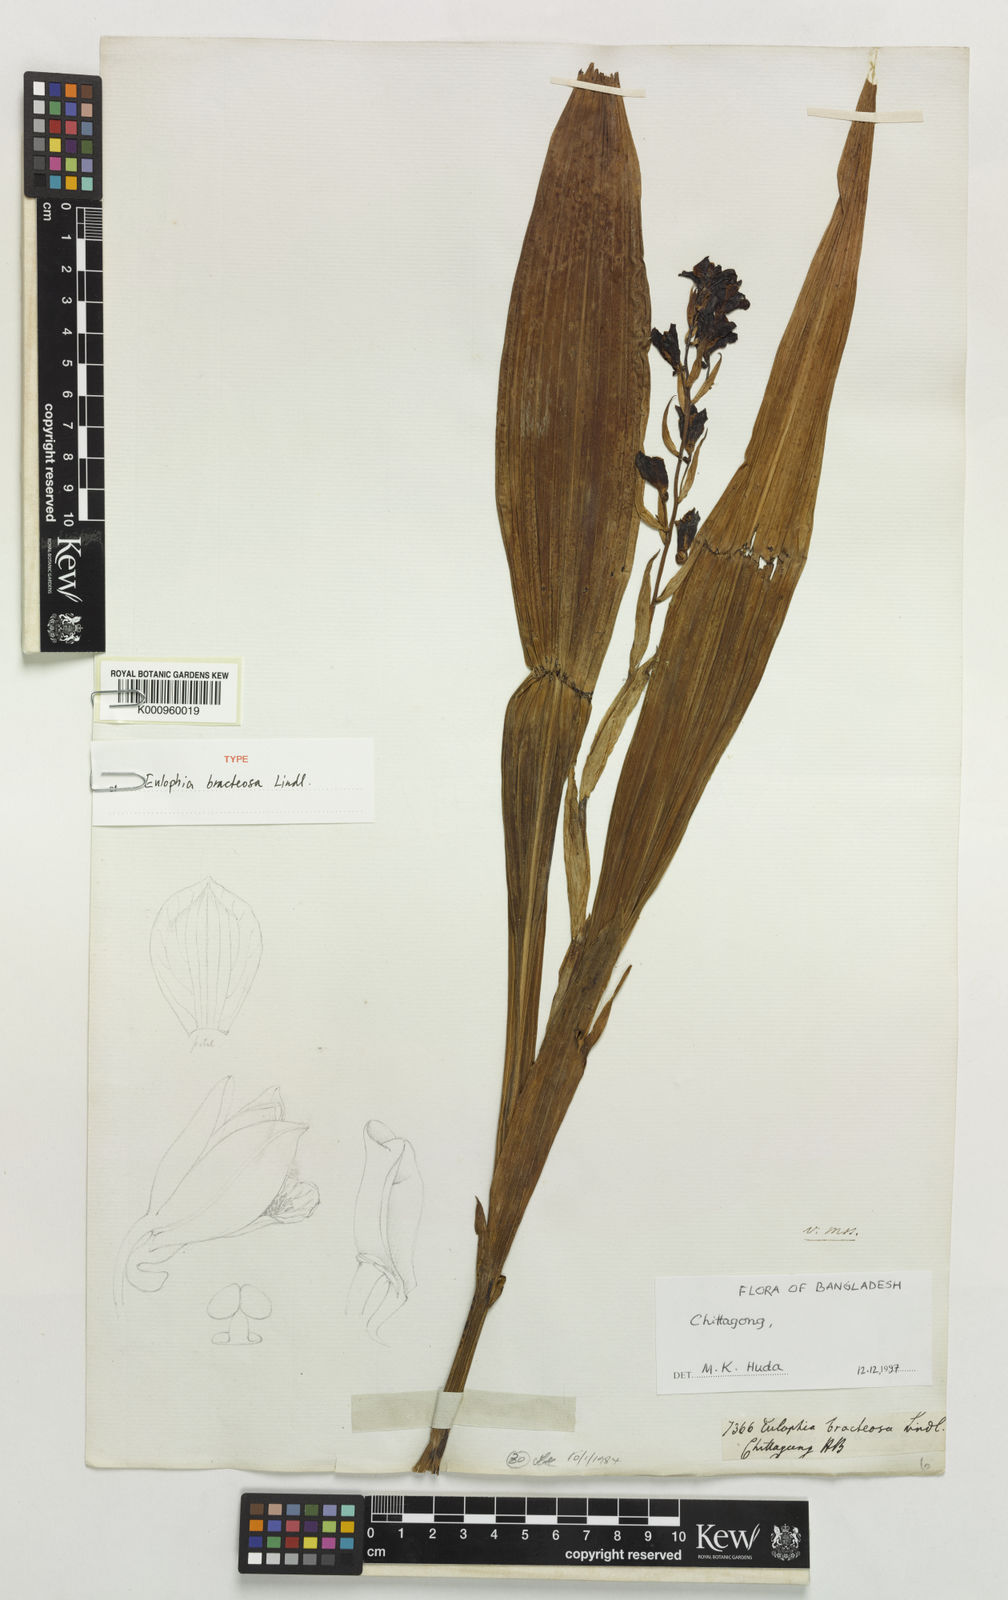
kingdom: Plantae
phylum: Tracheophyta
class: Liliopsida
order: Asparagales
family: Orchidaceae
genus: Eulophia
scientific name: Eulophia bracteosa
